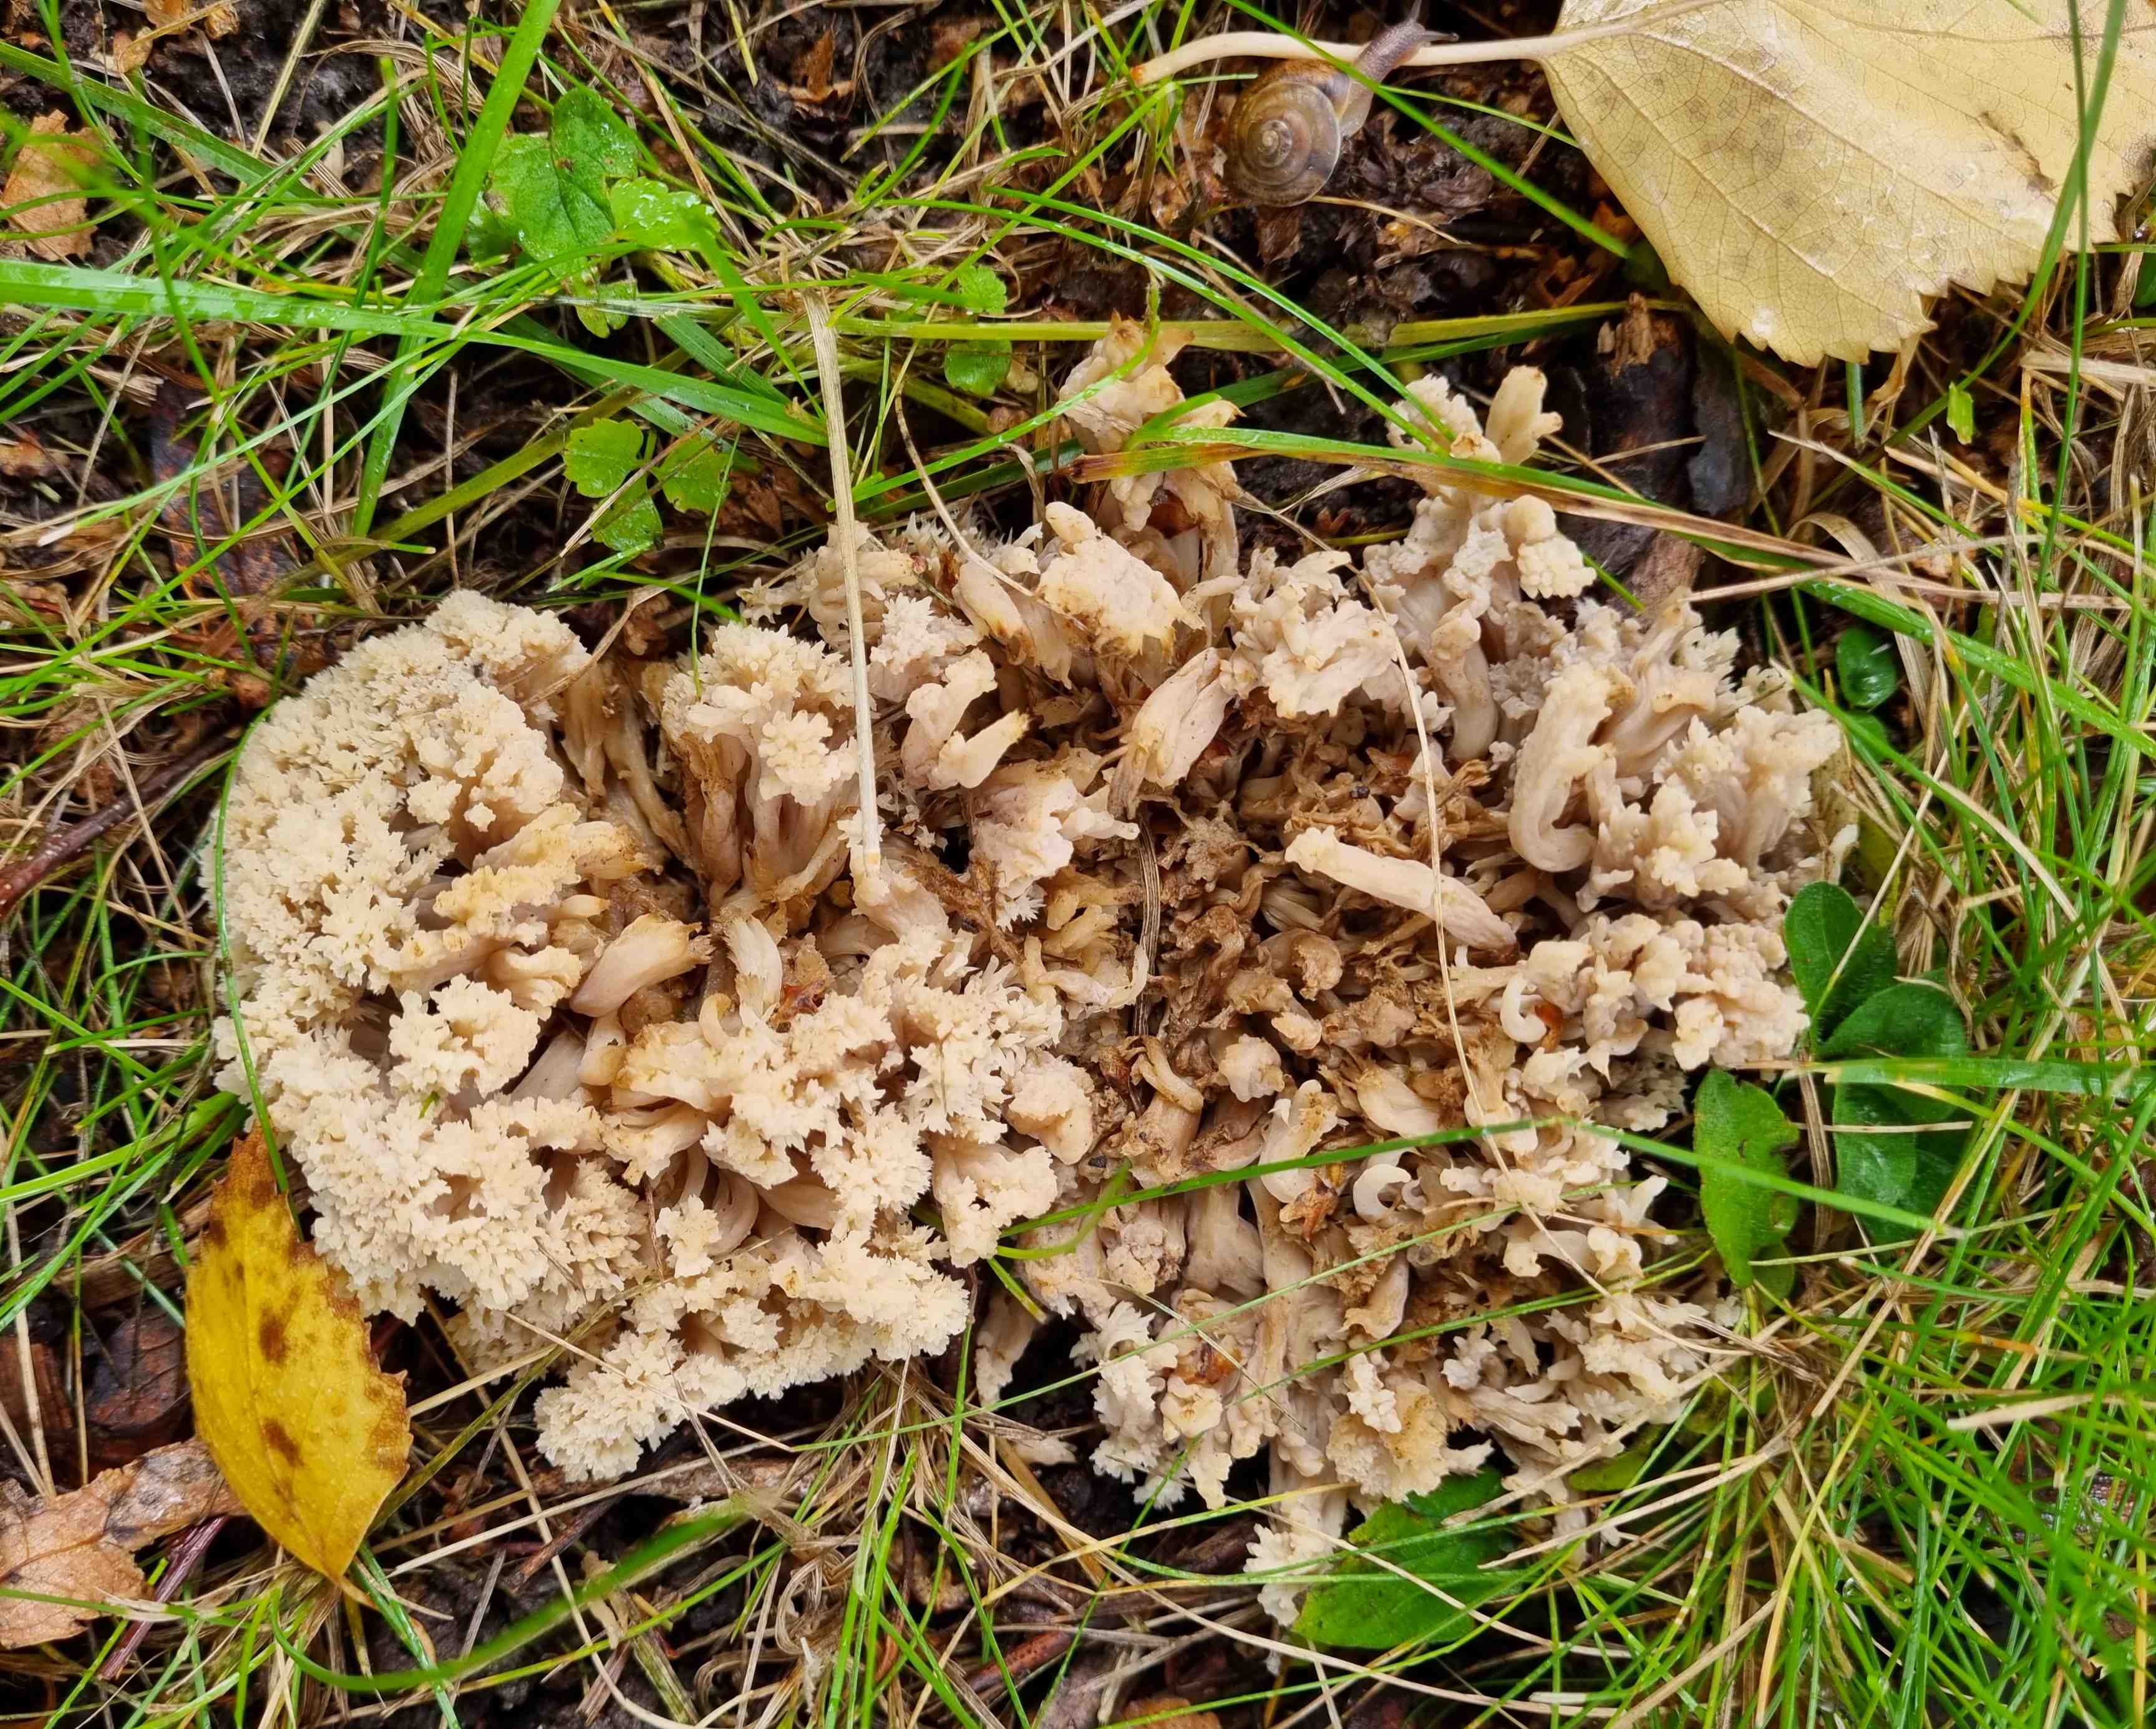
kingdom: Fungi
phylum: Basidiomycota
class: Agaricomycetes
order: Cantharellales
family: Hydnaceae
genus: Clavulina
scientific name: Clavulina
